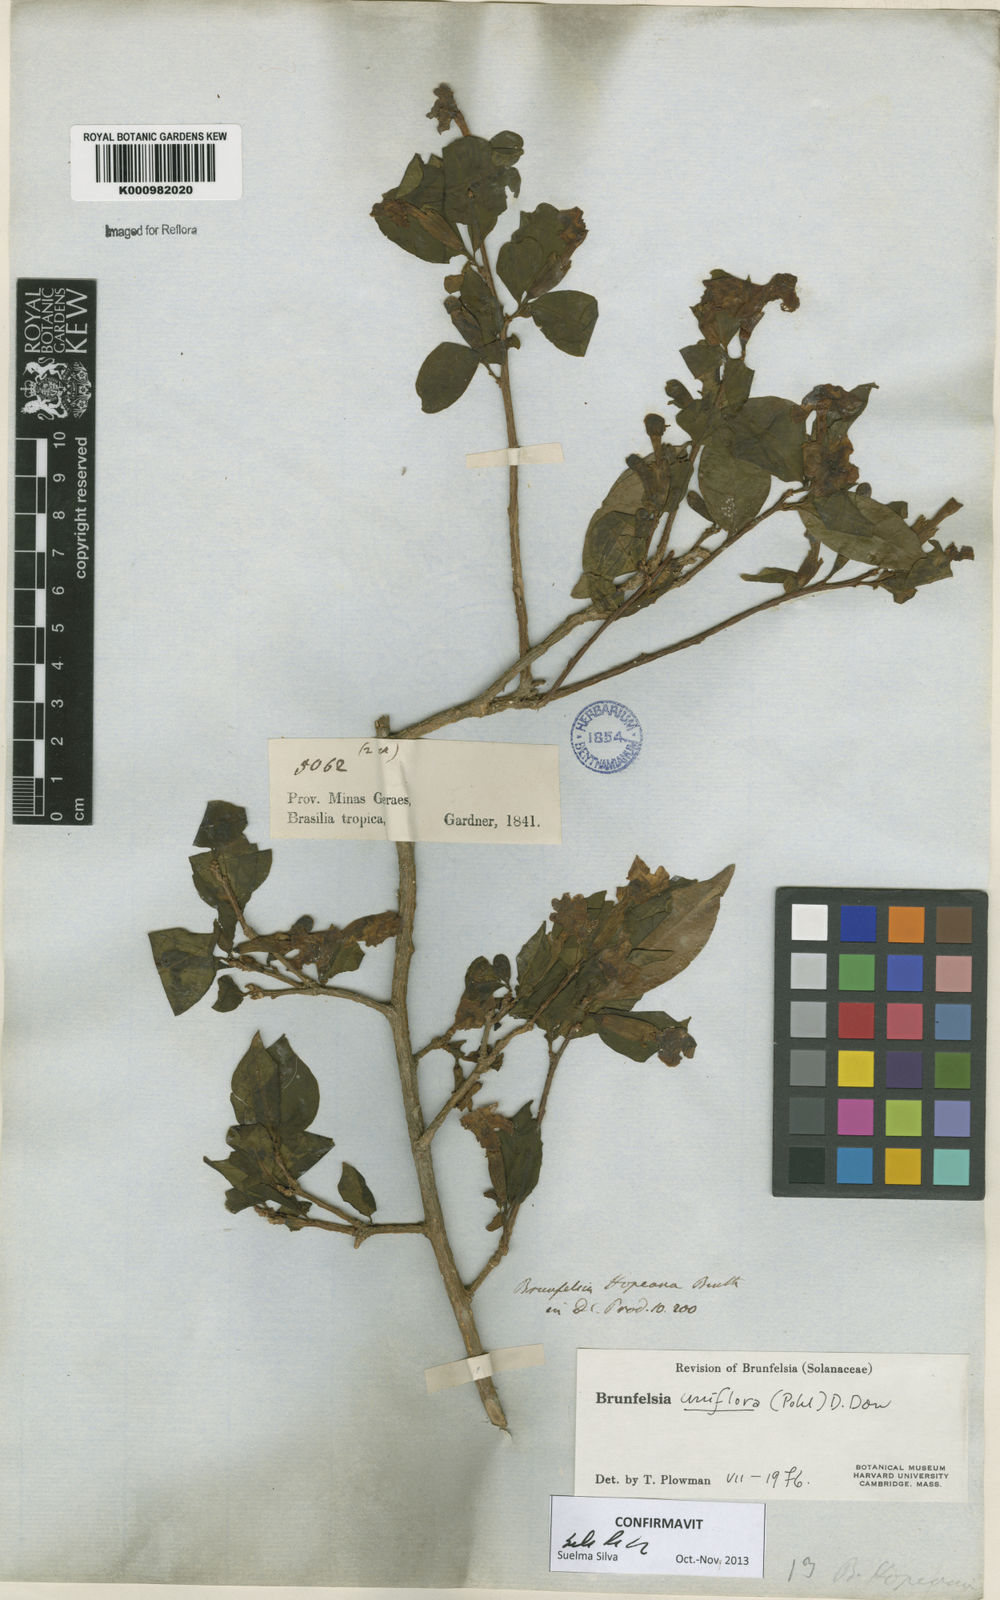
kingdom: Plantae
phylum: Tracheophyta
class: Magnoliopsida
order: Solanales
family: Solanaceae
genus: Brunfelsia
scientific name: Brunfelsia uniflora
